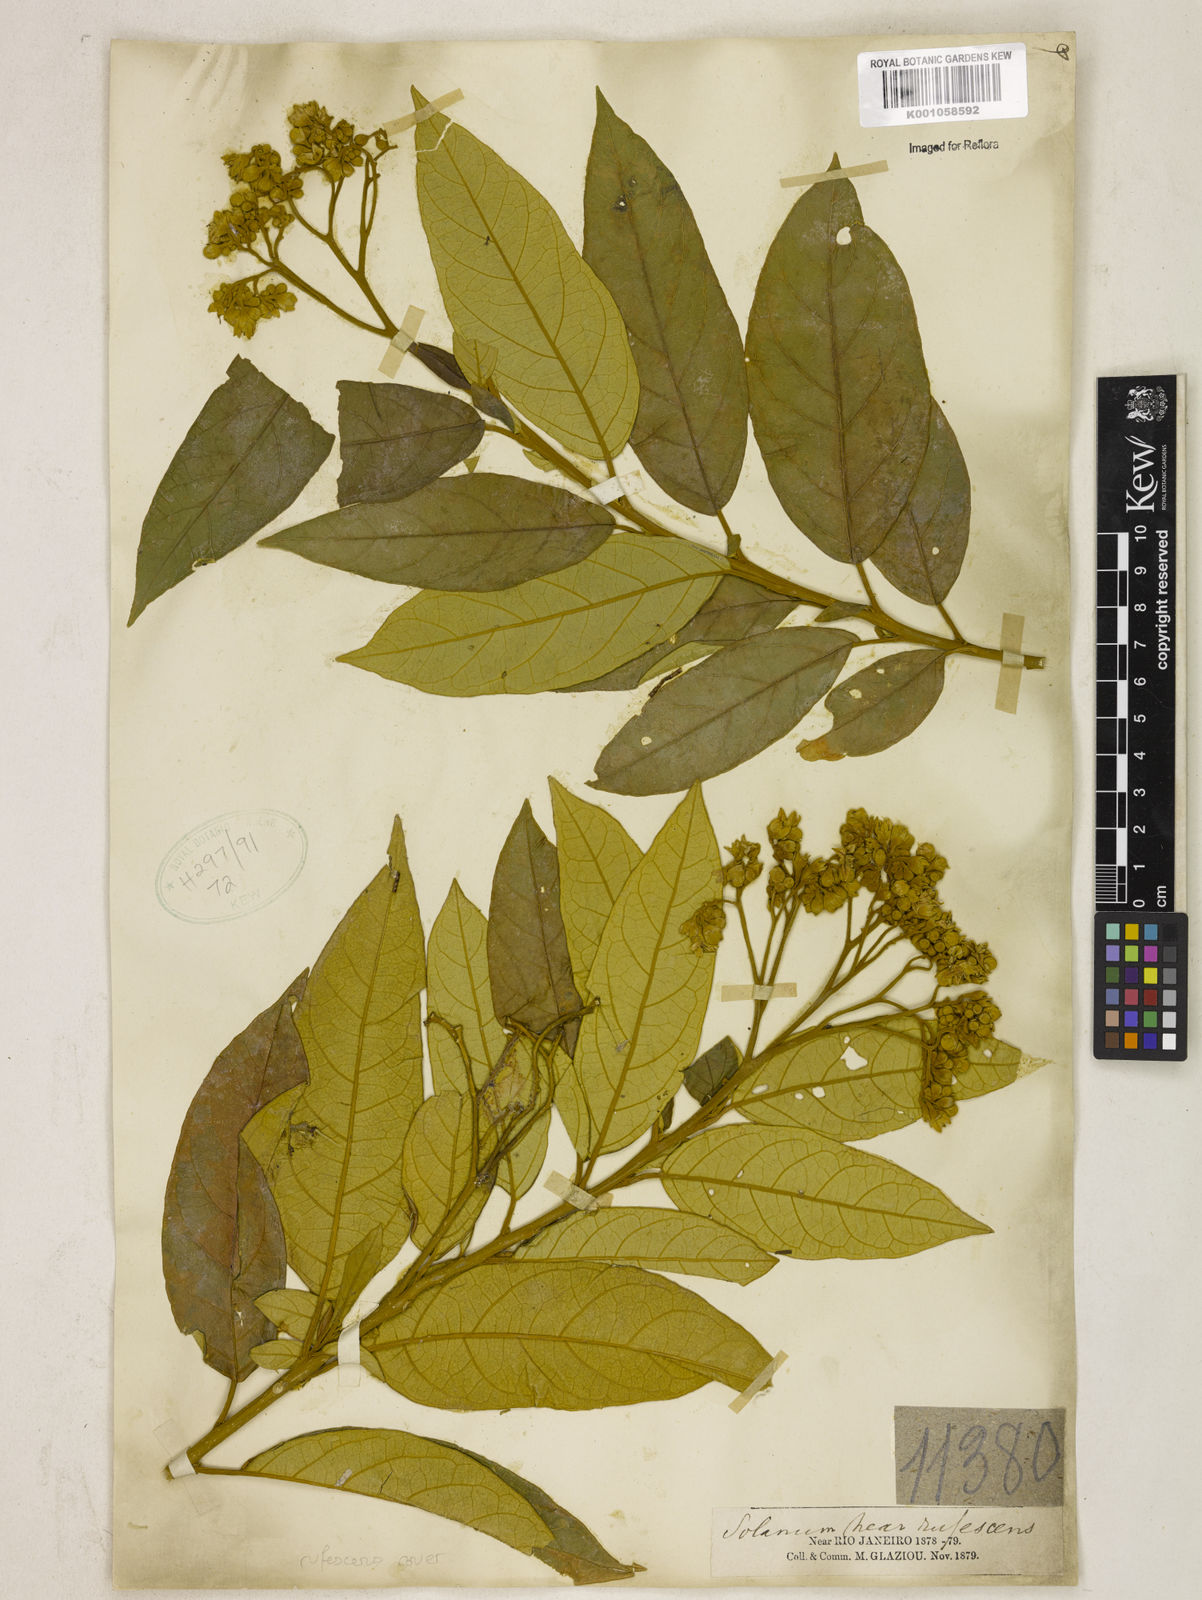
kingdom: Plantae
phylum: Tracheophyta
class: Magnoliopsida
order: Solanales
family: Solanaceae
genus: Solanum
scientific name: Solanum rufescens
